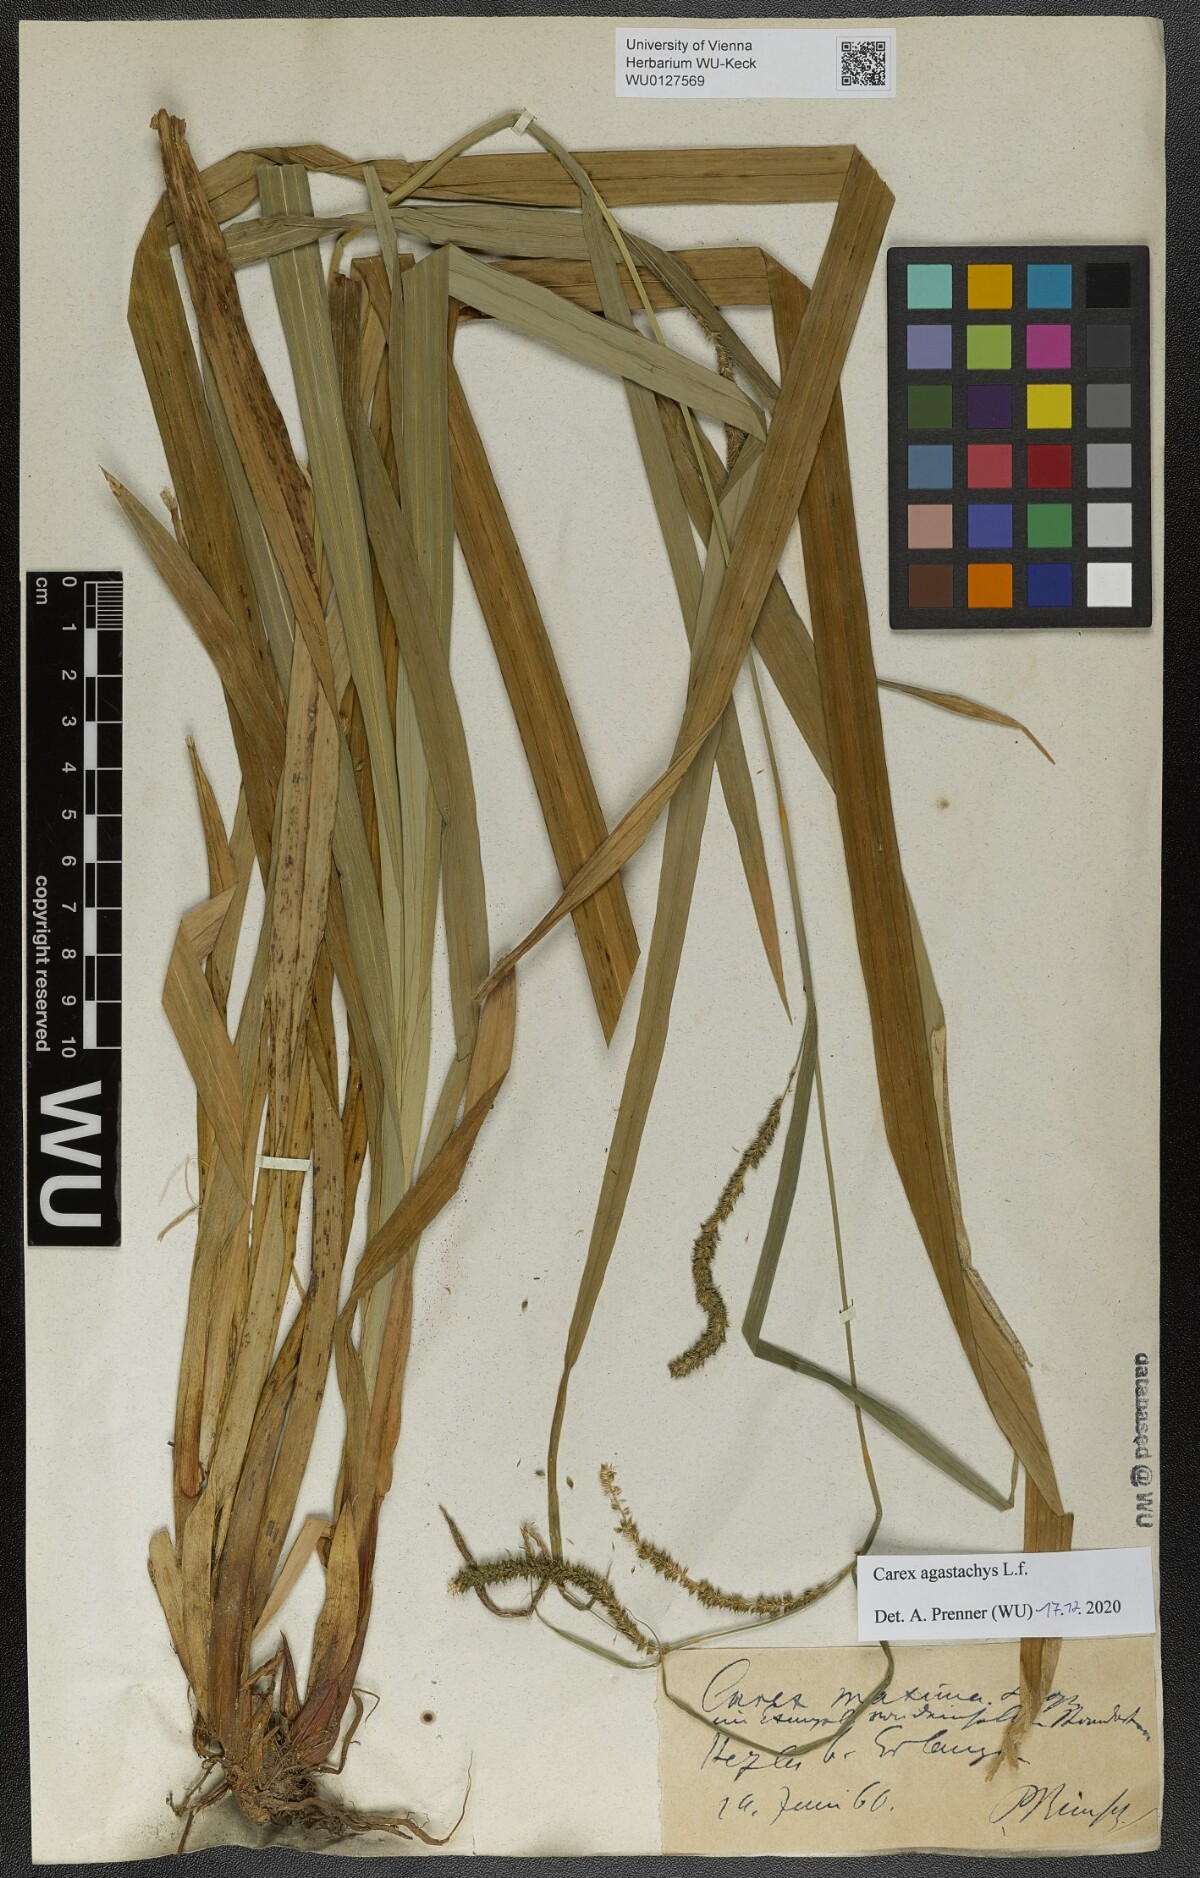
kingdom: Plantae
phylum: Tracheophyta
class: Liliopsida
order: Poales
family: Cyperaceae
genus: Carex
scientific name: Carex agastachys
